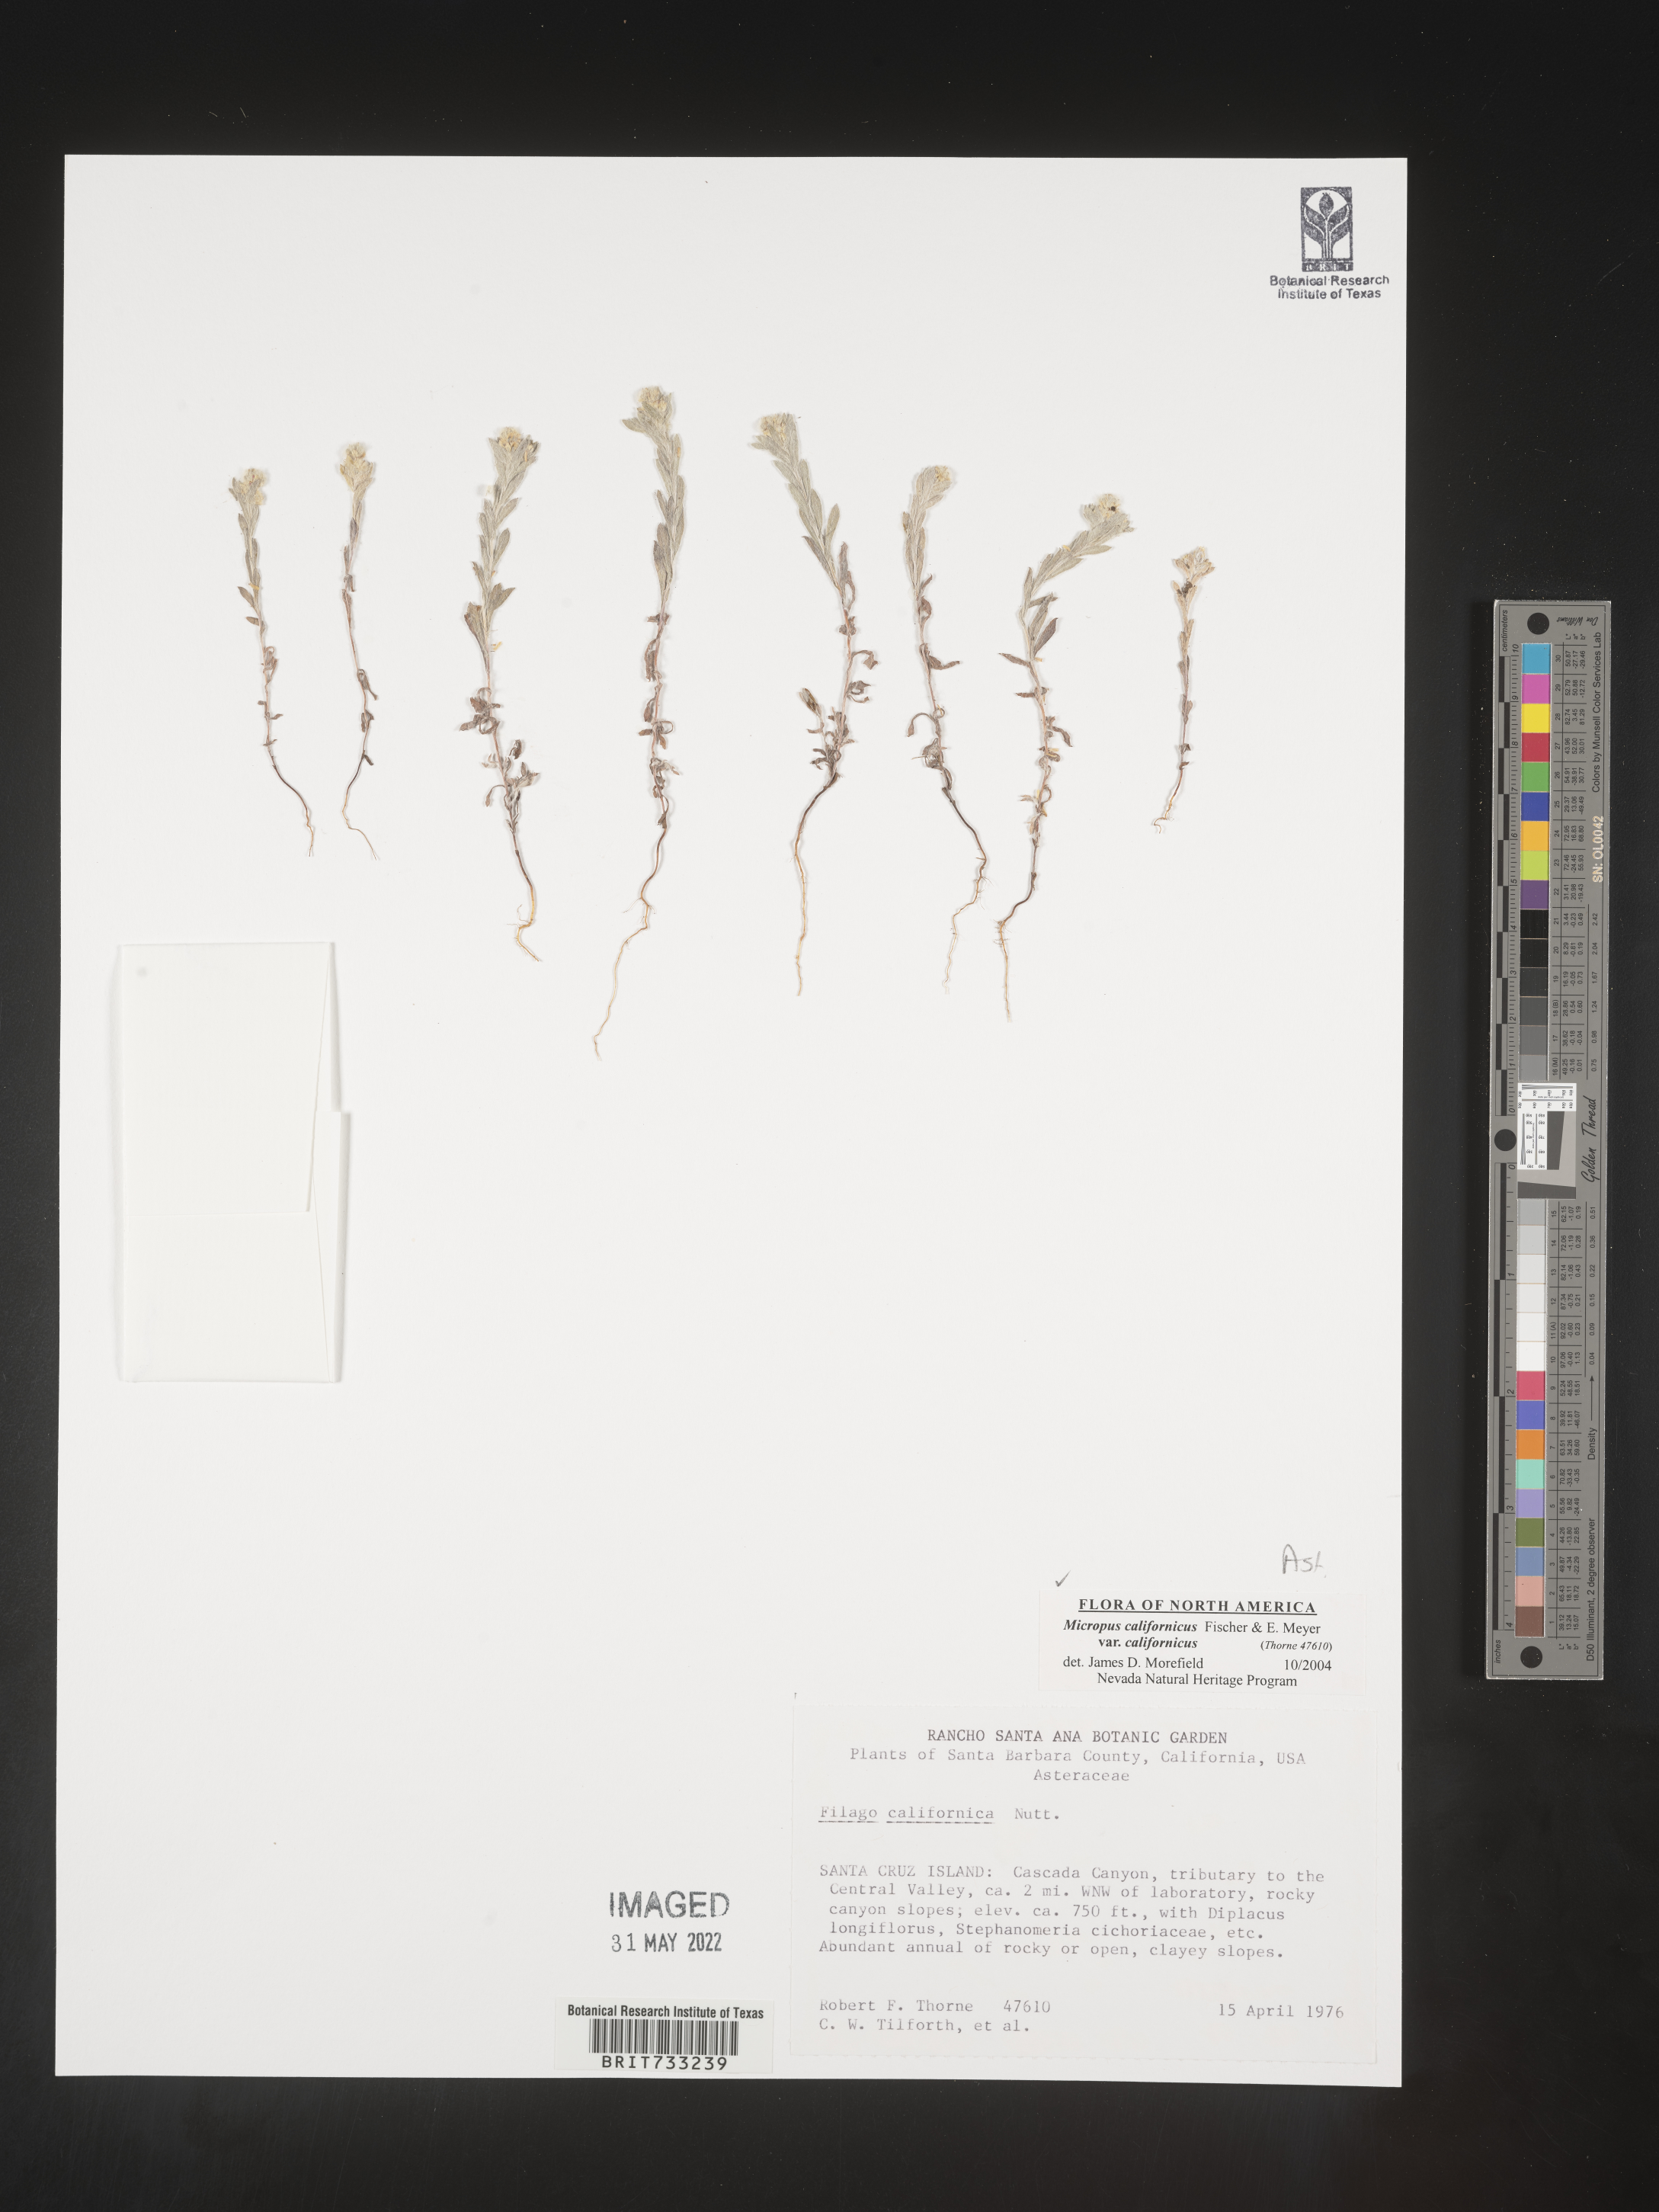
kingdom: Plantae
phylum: Tracheophyta
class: Magnoliopsida
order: Asterales
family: Asteraceae
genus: Micropus
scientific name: Micropus
